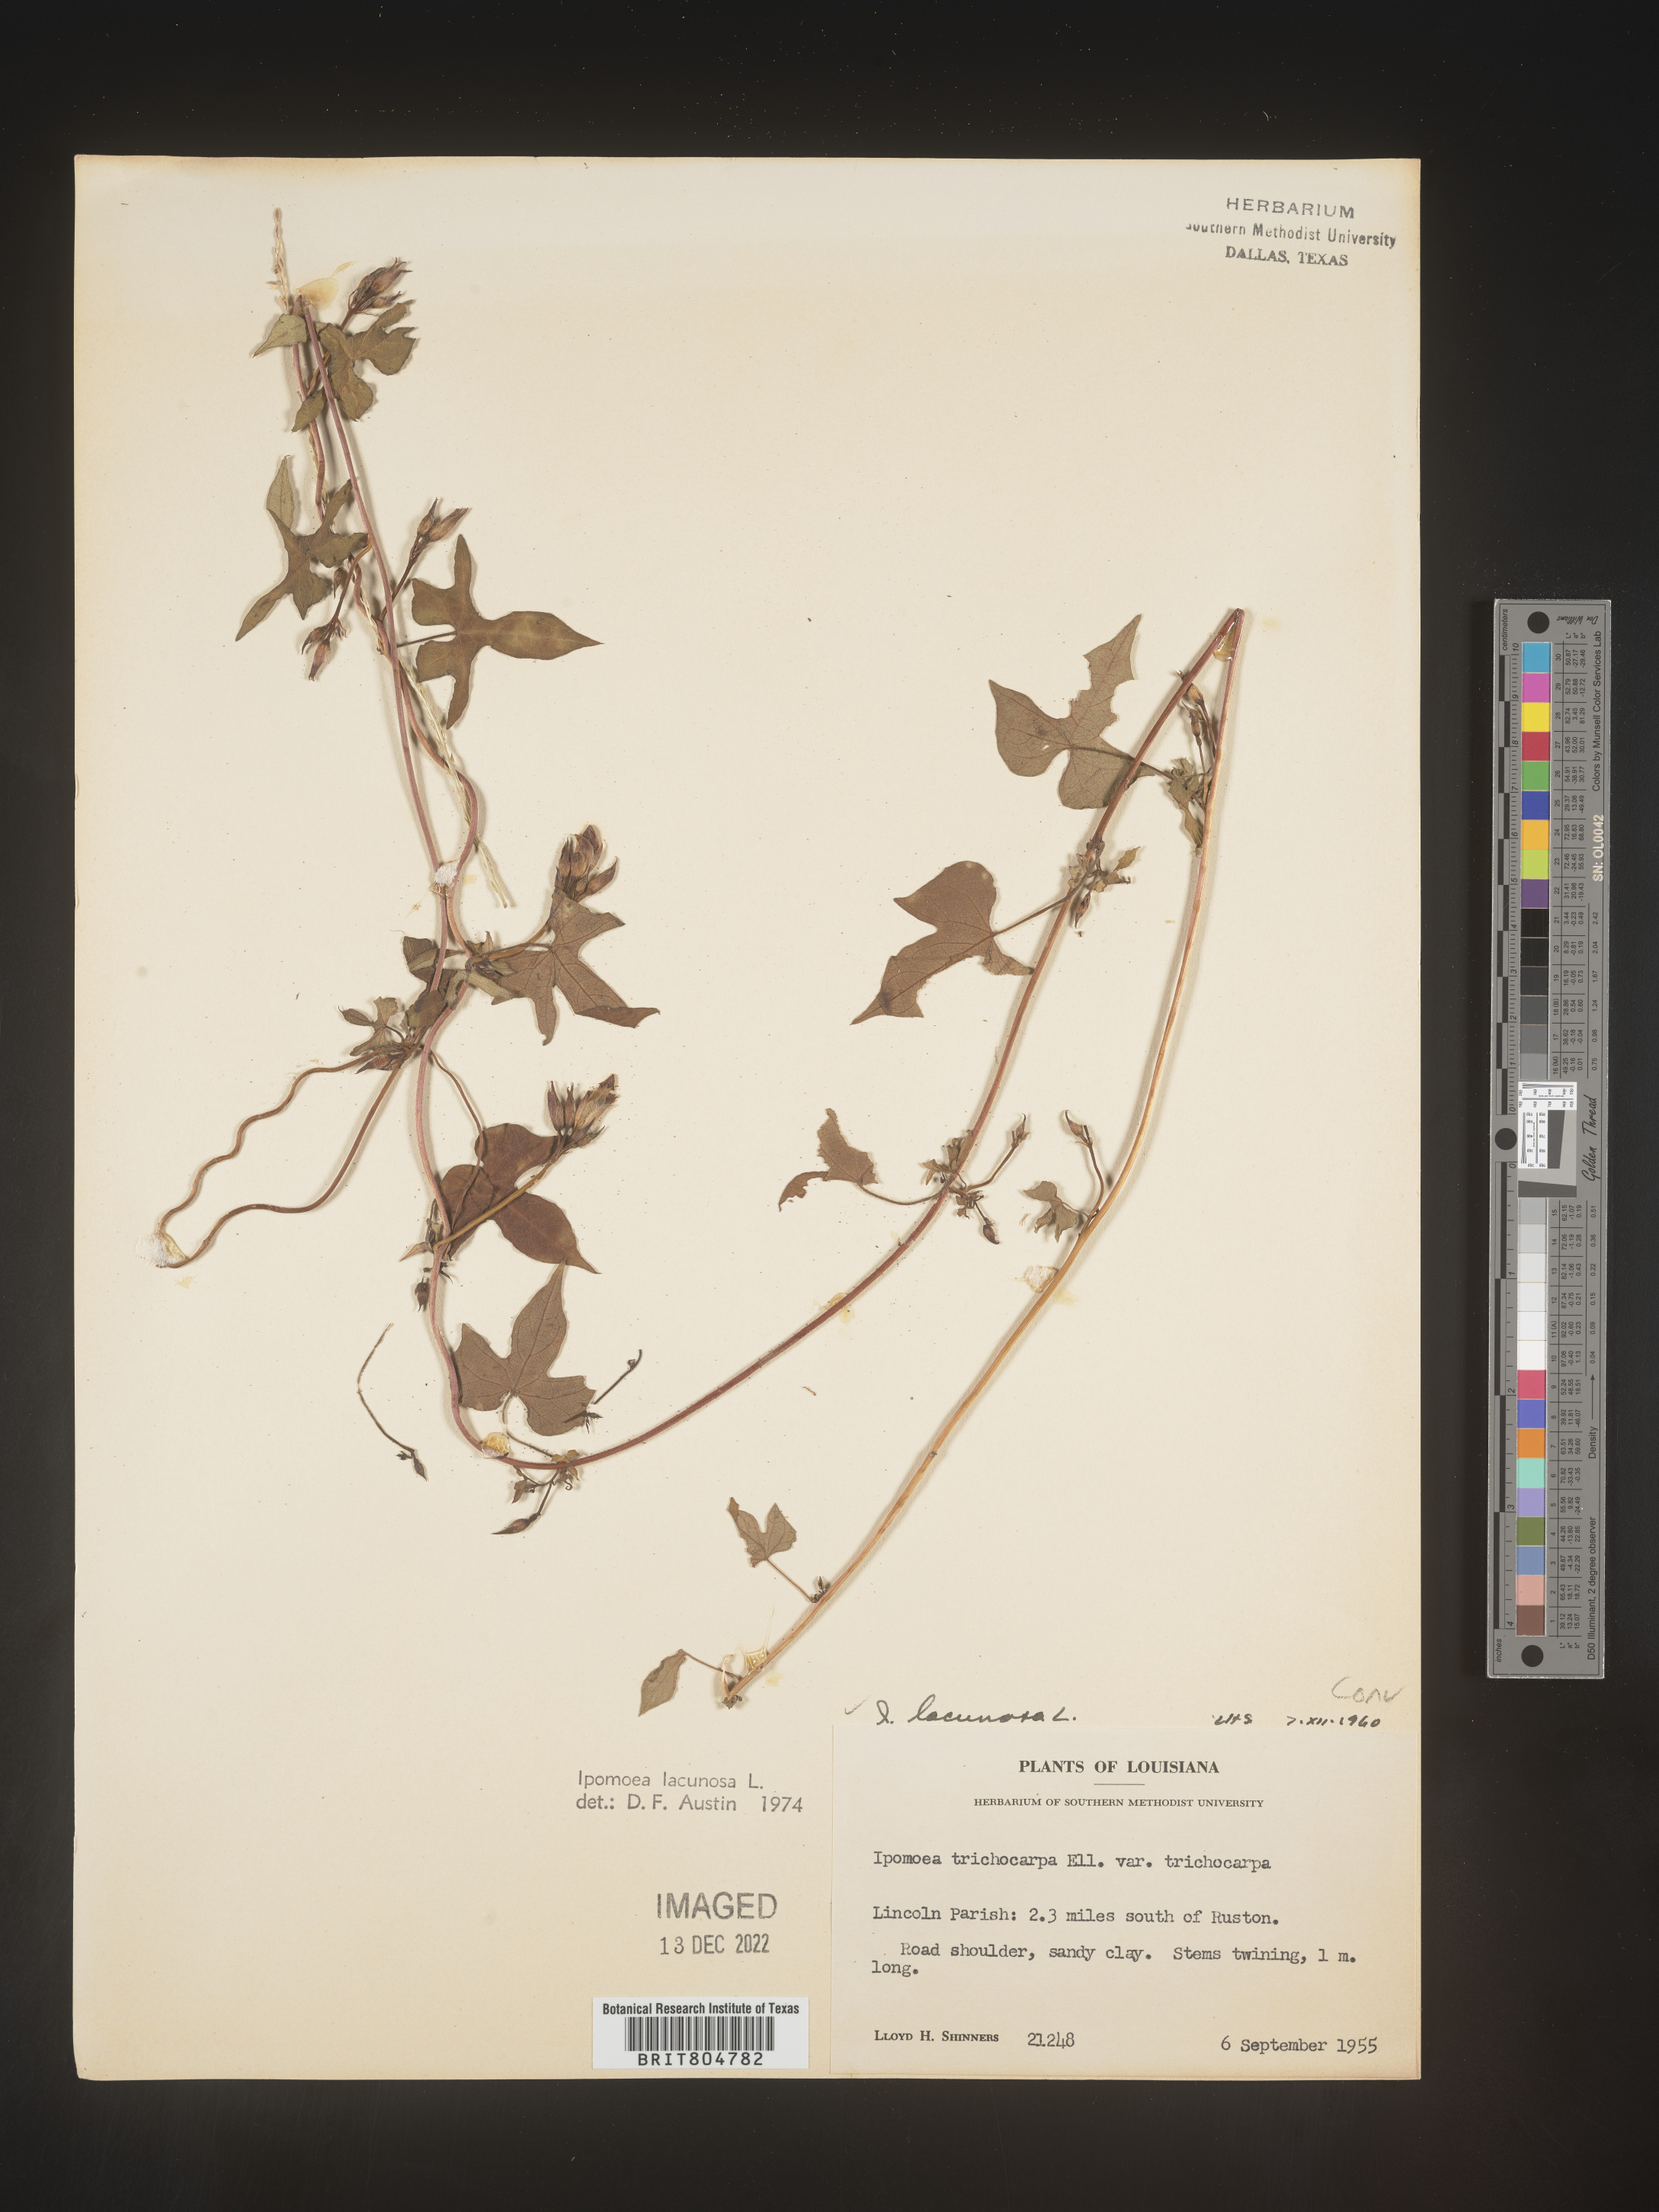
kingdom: Plantae
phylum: Tracheophyta
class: Magnoliopsida
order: Solanales
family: Convolvulaceae
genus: Ipomoea
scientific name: Ipomoea lacunosa
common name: White morning-glory
